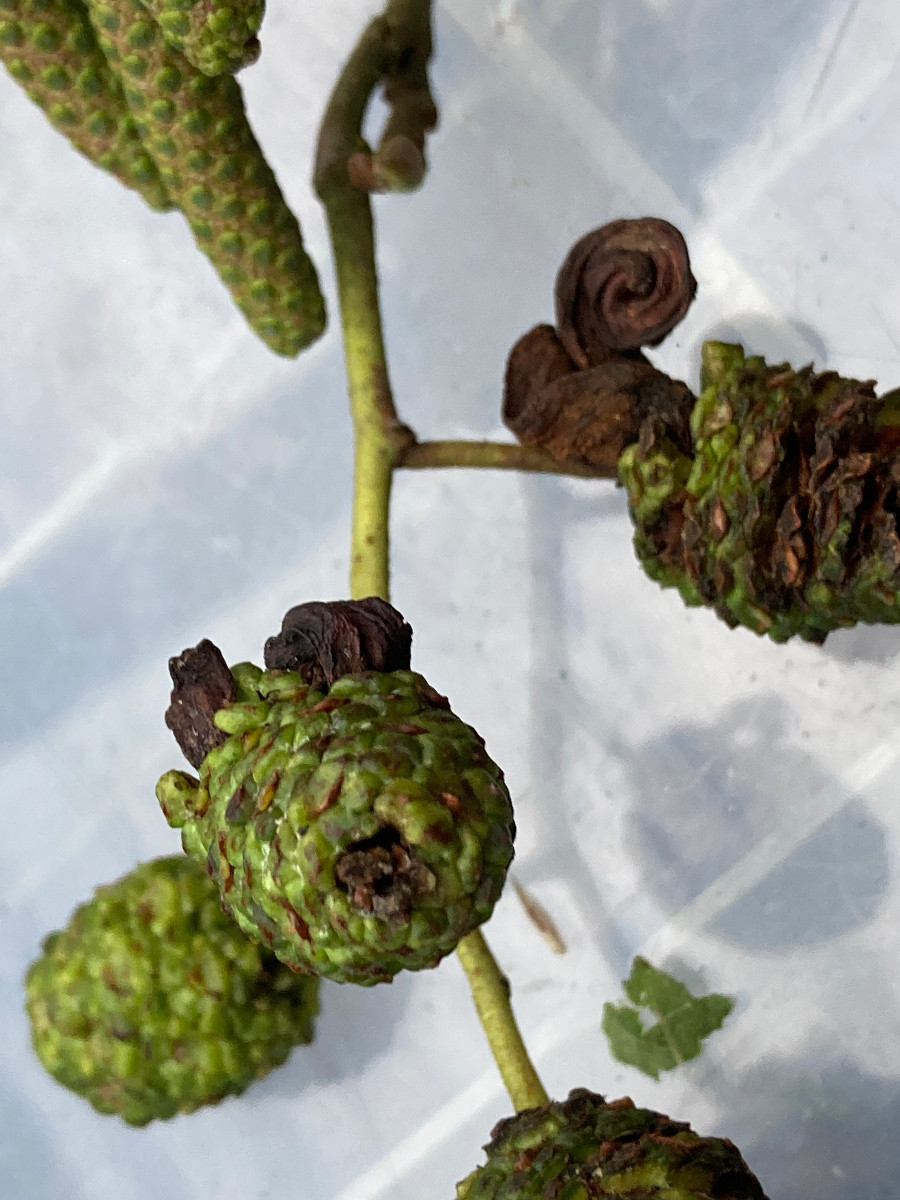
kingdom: Fungi
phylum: Ascomycota
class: Taphrinomycetes
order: Taphrinales
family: Taphrinaceae
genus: Taphrina
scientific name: Taphrina alni
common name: Alder tongue
